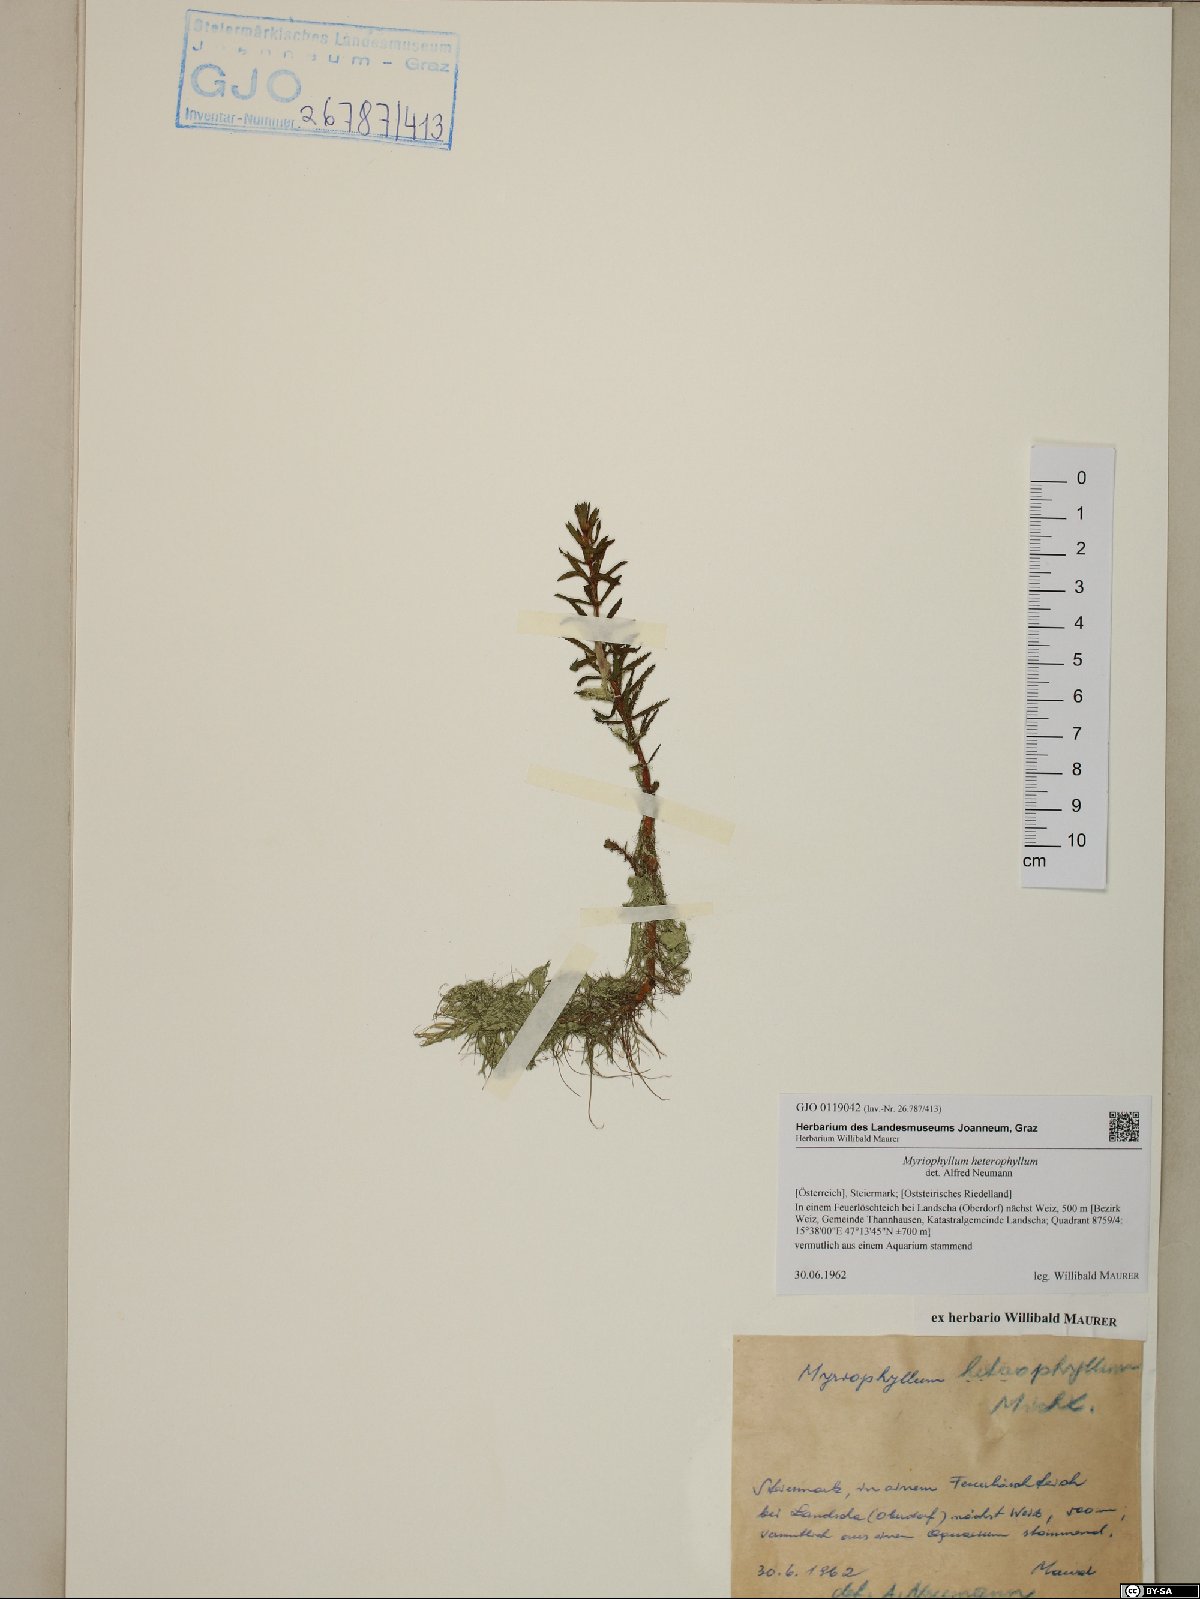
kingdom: Plantae
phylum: Tracheophyta
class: Magnoliopsida
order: Saxifragales
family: Haloragaceae
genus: Myriophyllum
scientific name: Myriophyllum heterophyllum
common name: Variable watermilfoil
